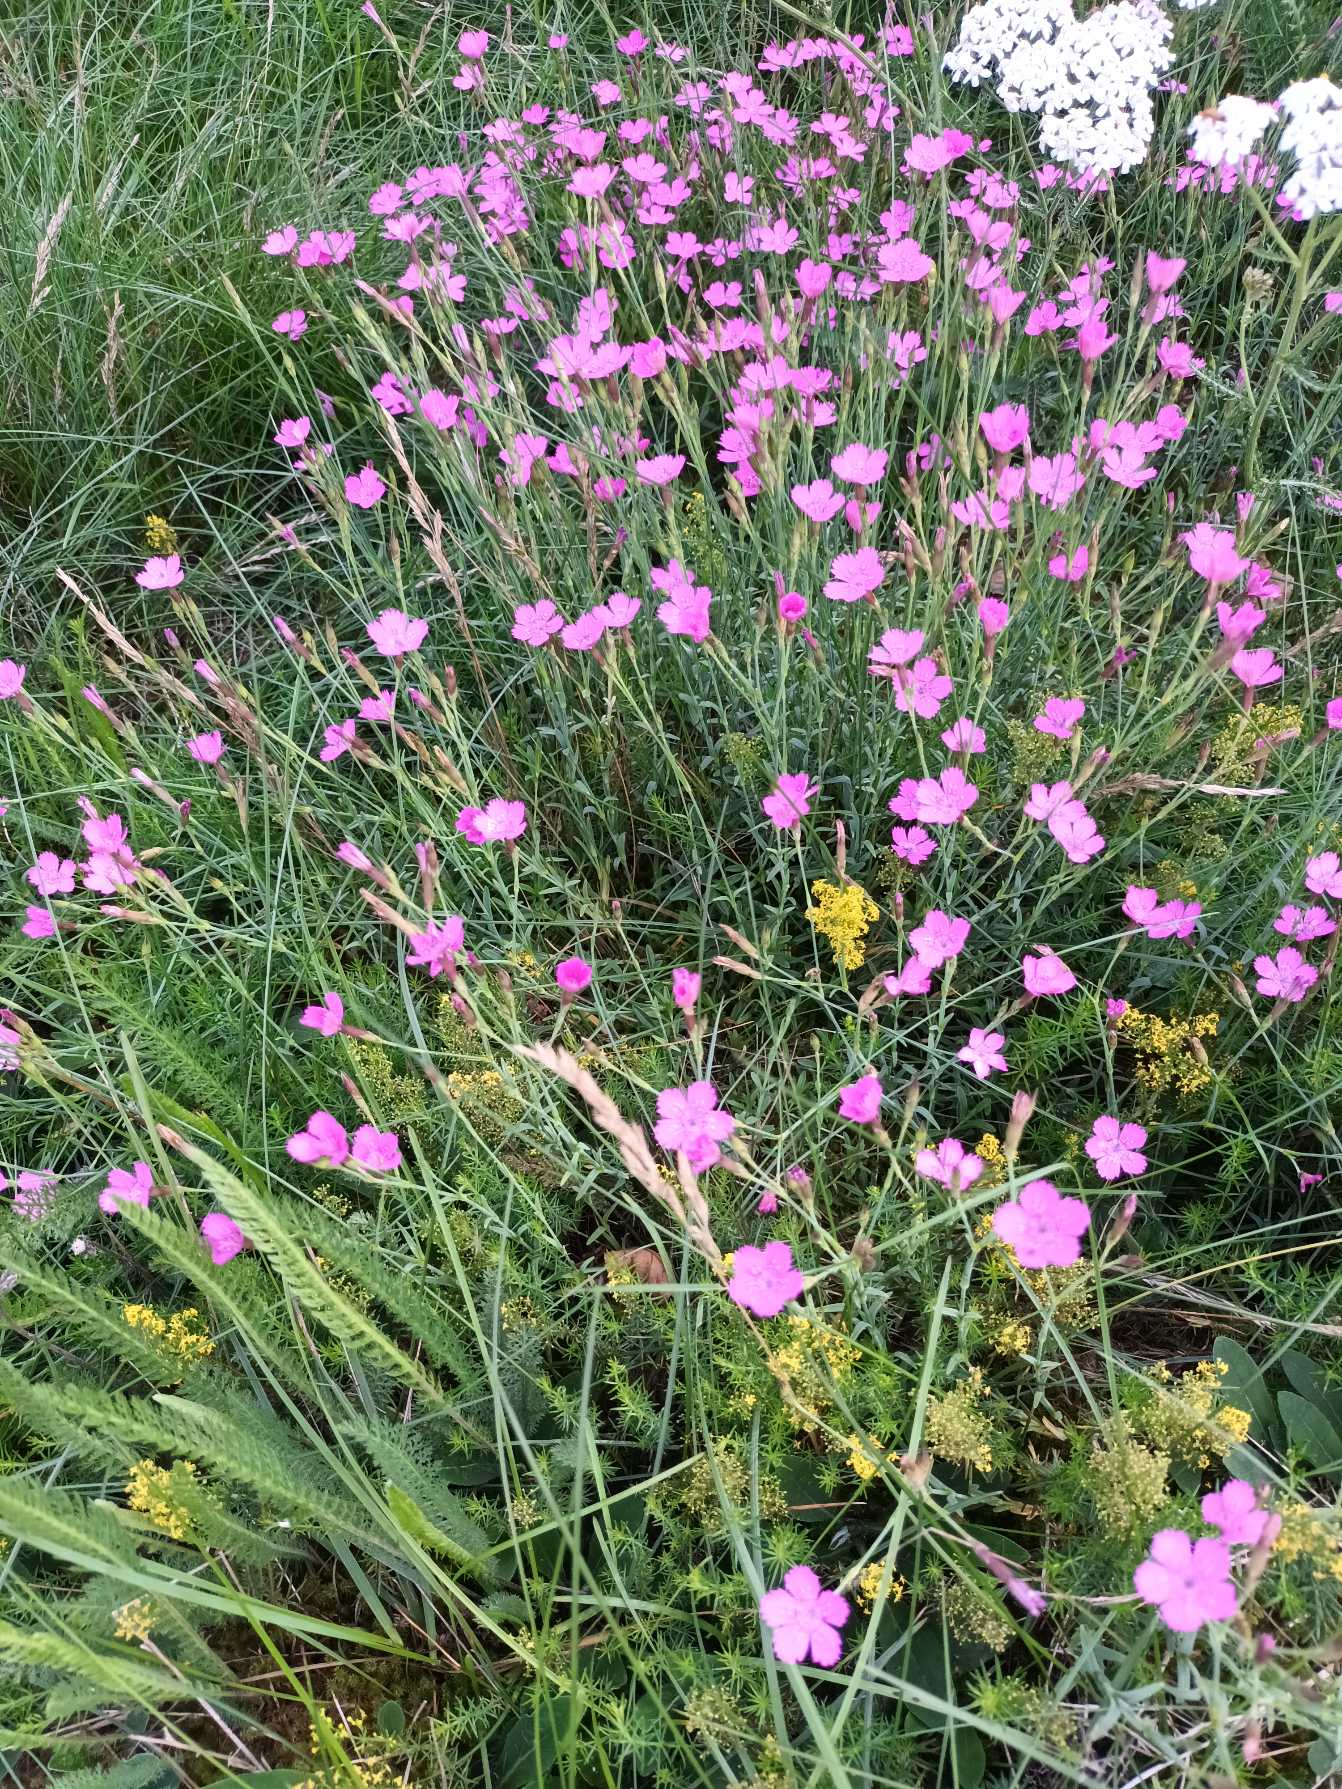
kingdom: Plantae
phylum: Tracheophyta
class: Magnoliopsida
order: Caryophyllales
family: Caryophyllaceae
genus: Dianthus
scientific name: Dianthus deltoides
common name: Bakke-nellike
